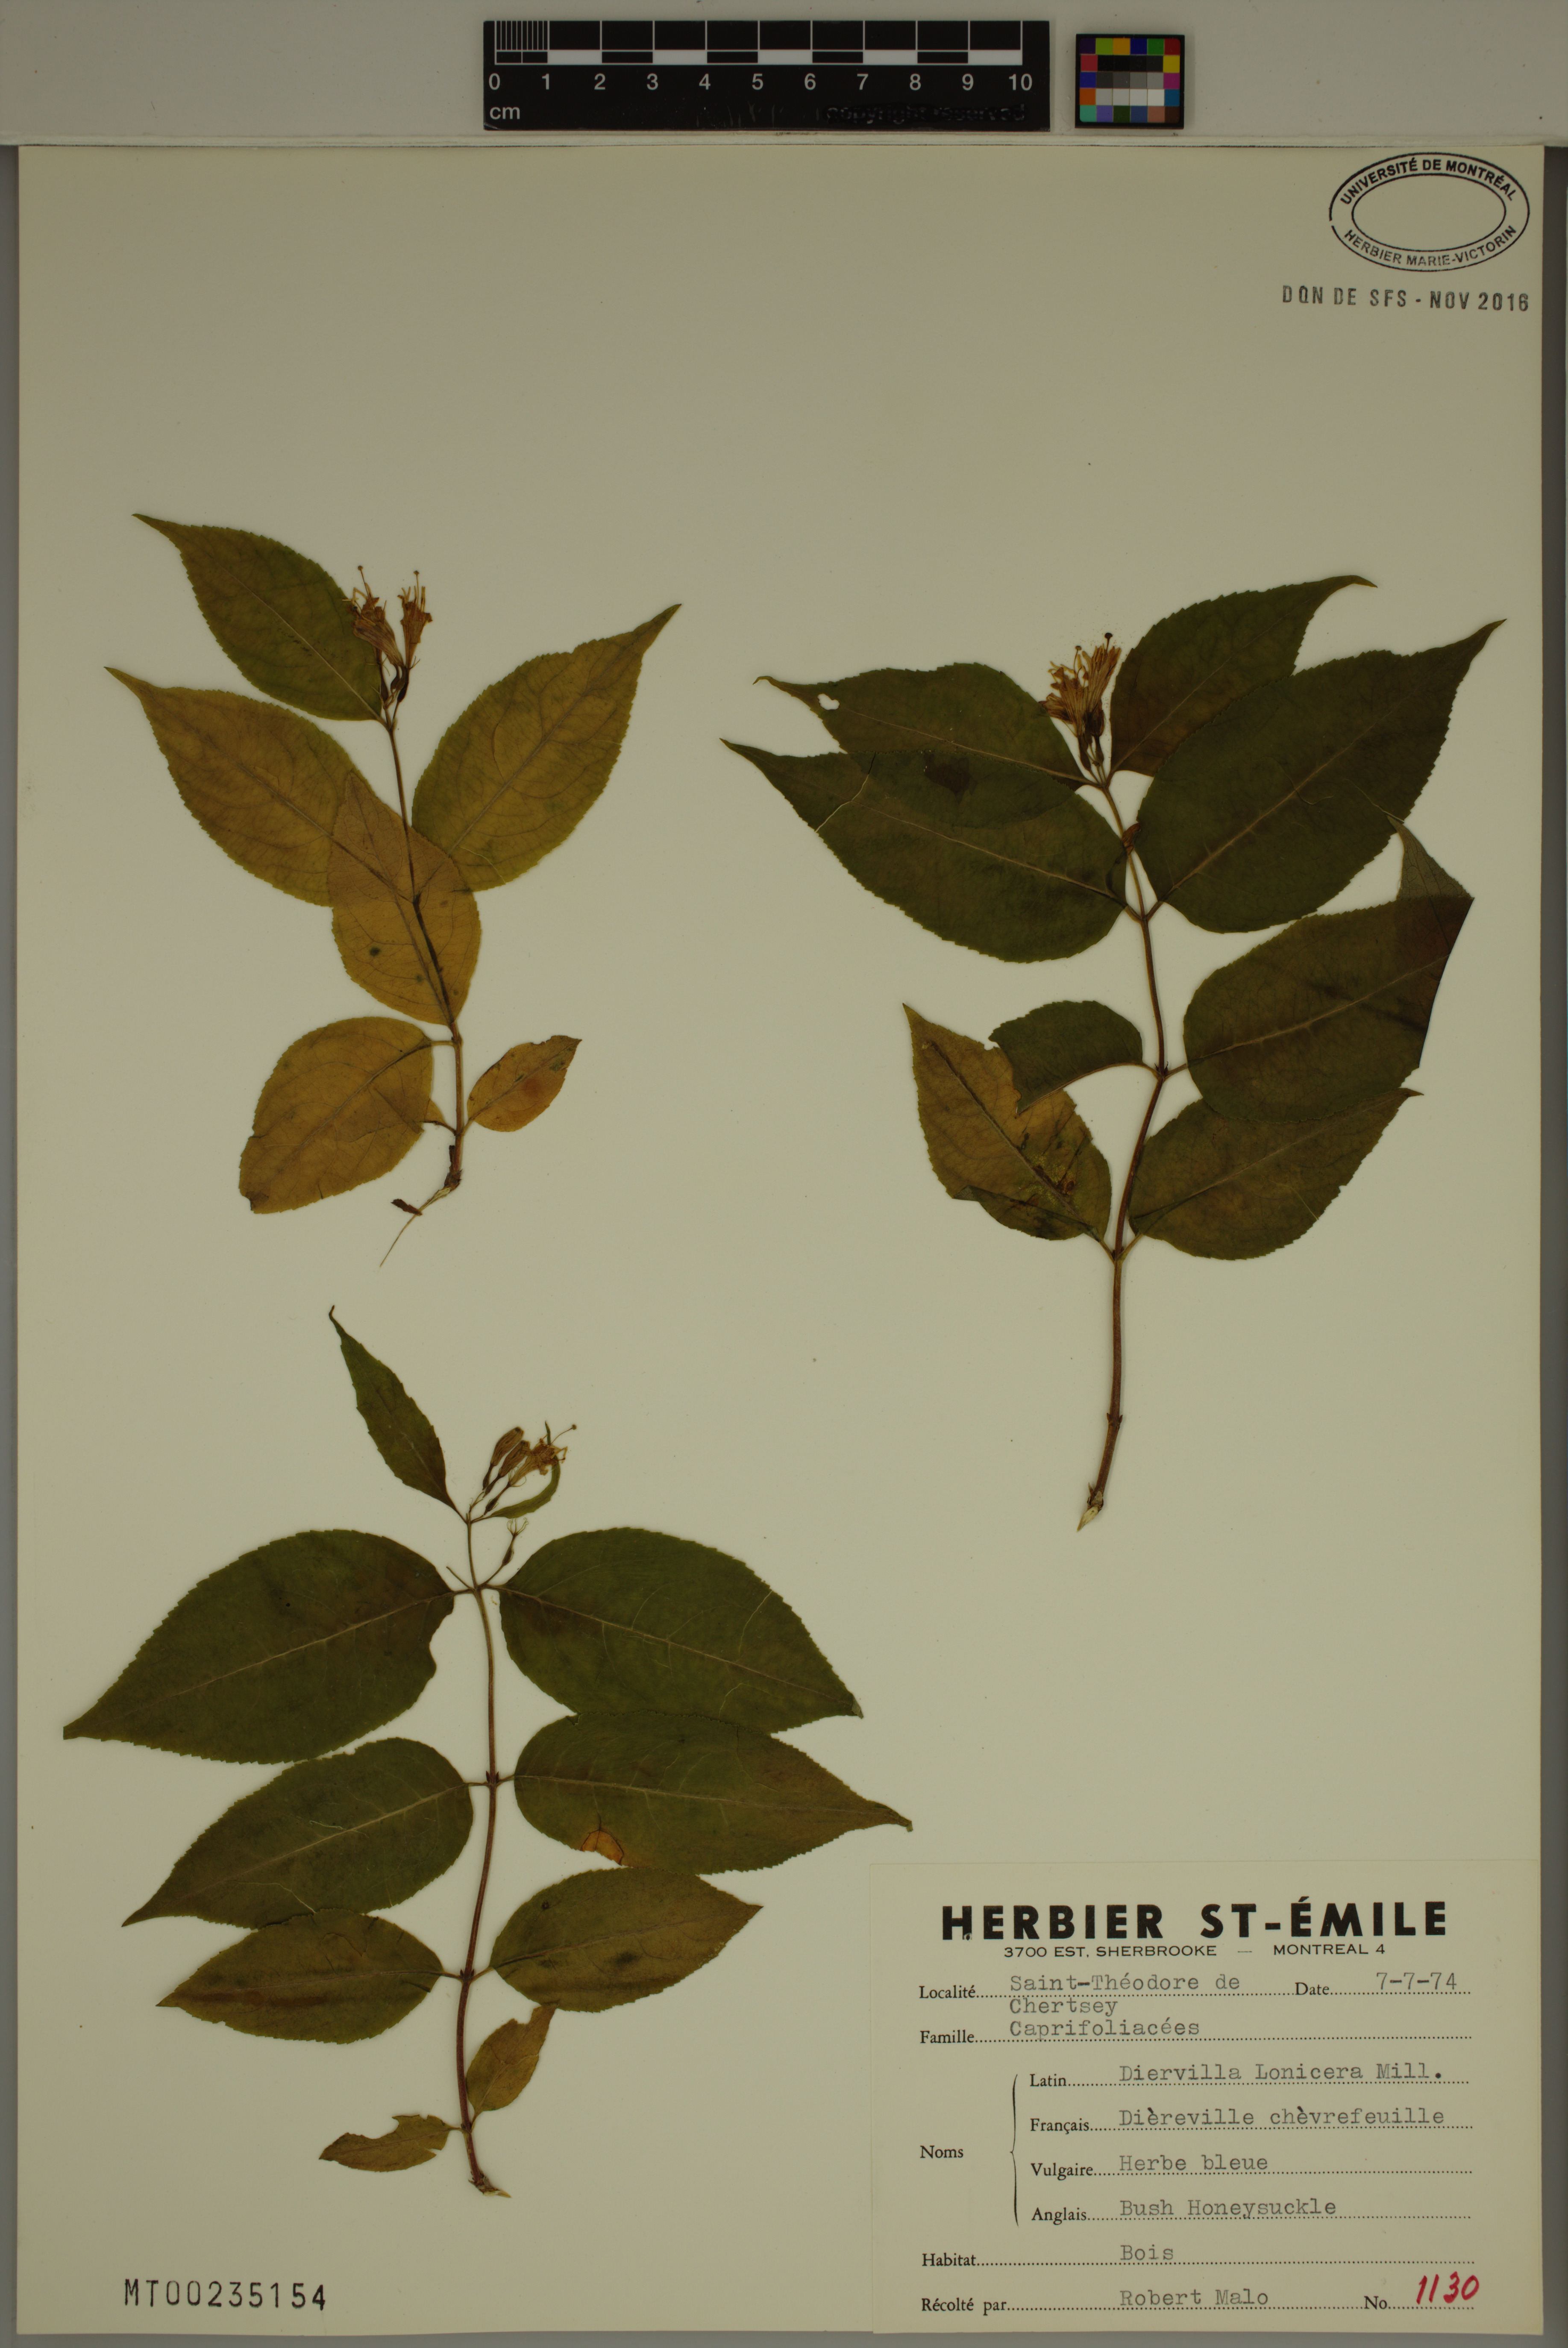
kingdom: Plantae
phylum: Tracheophyta
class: Magnoliopsida
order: Dipsacales
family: Caprifoliaceae
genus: Diervilla
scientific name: Diervilla lonicera
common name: Bush-honeysuckle
